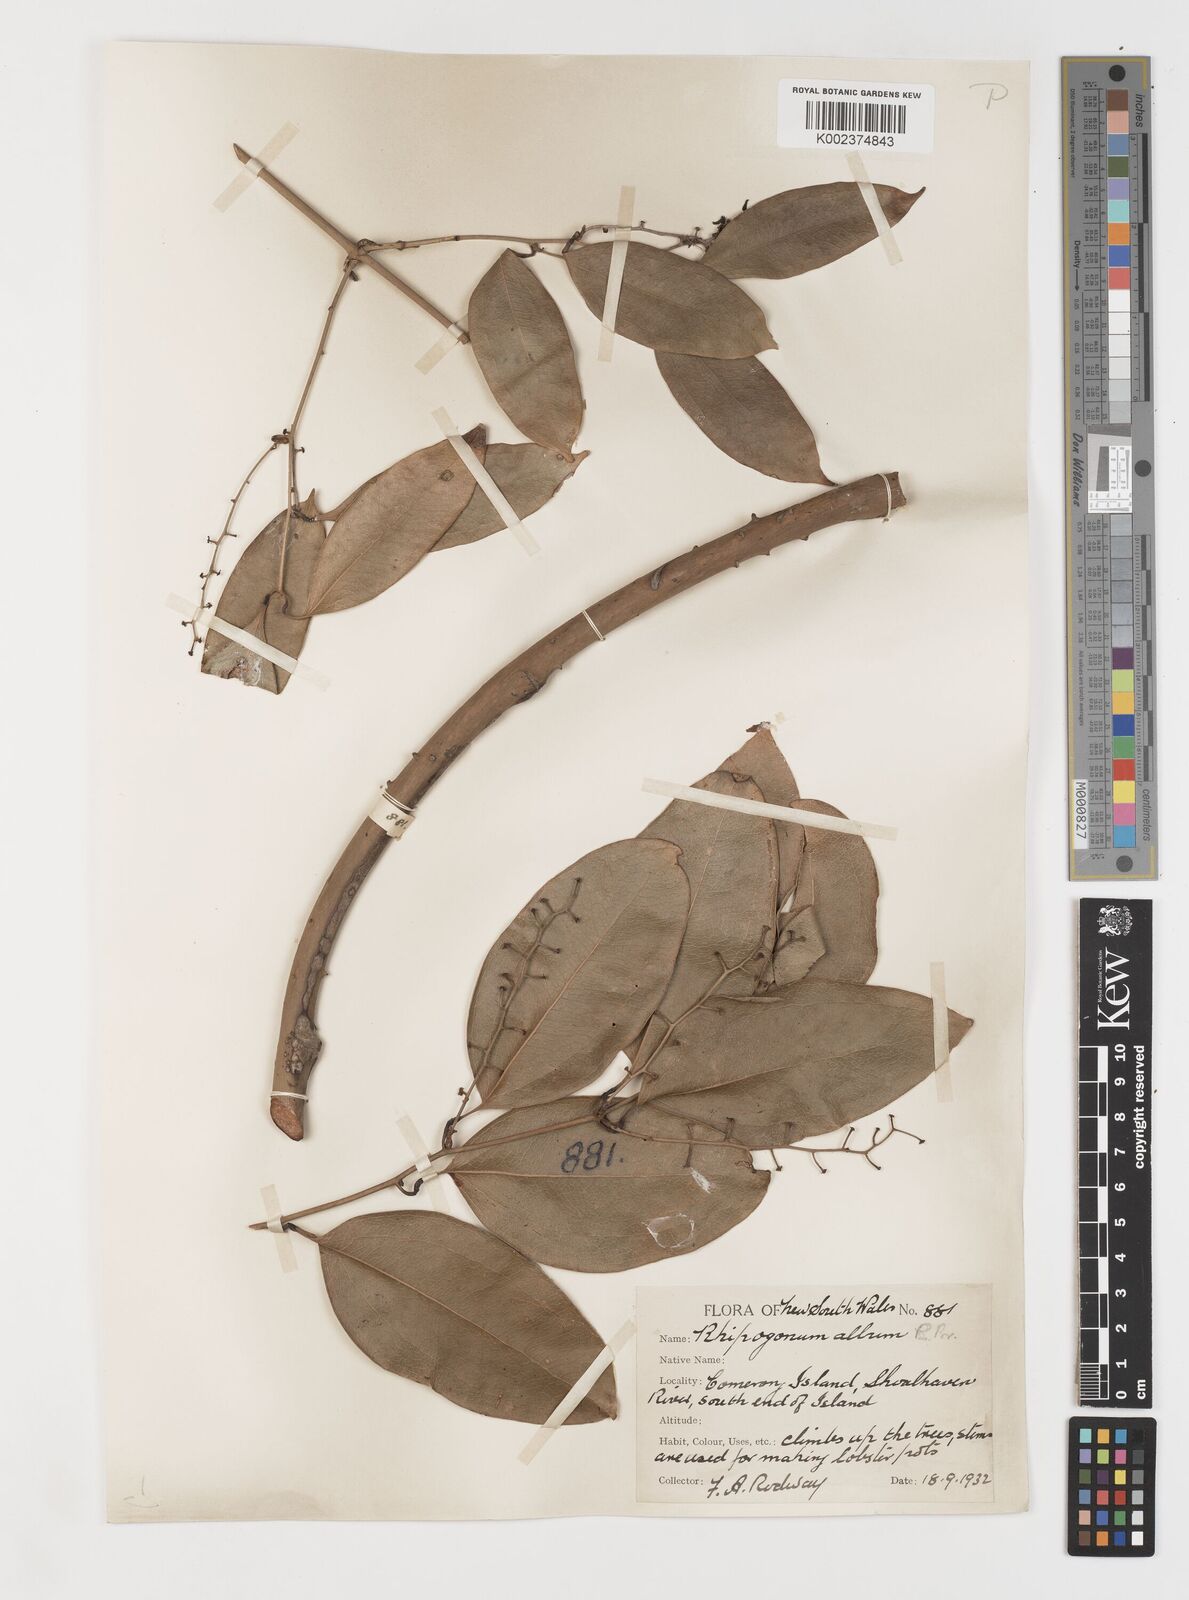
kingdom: Plantae
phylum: Tracheophyta
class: Liliopsida
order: Liliales
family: Ripogonaceae
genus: Ripogonum
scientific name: Ripogonum album
